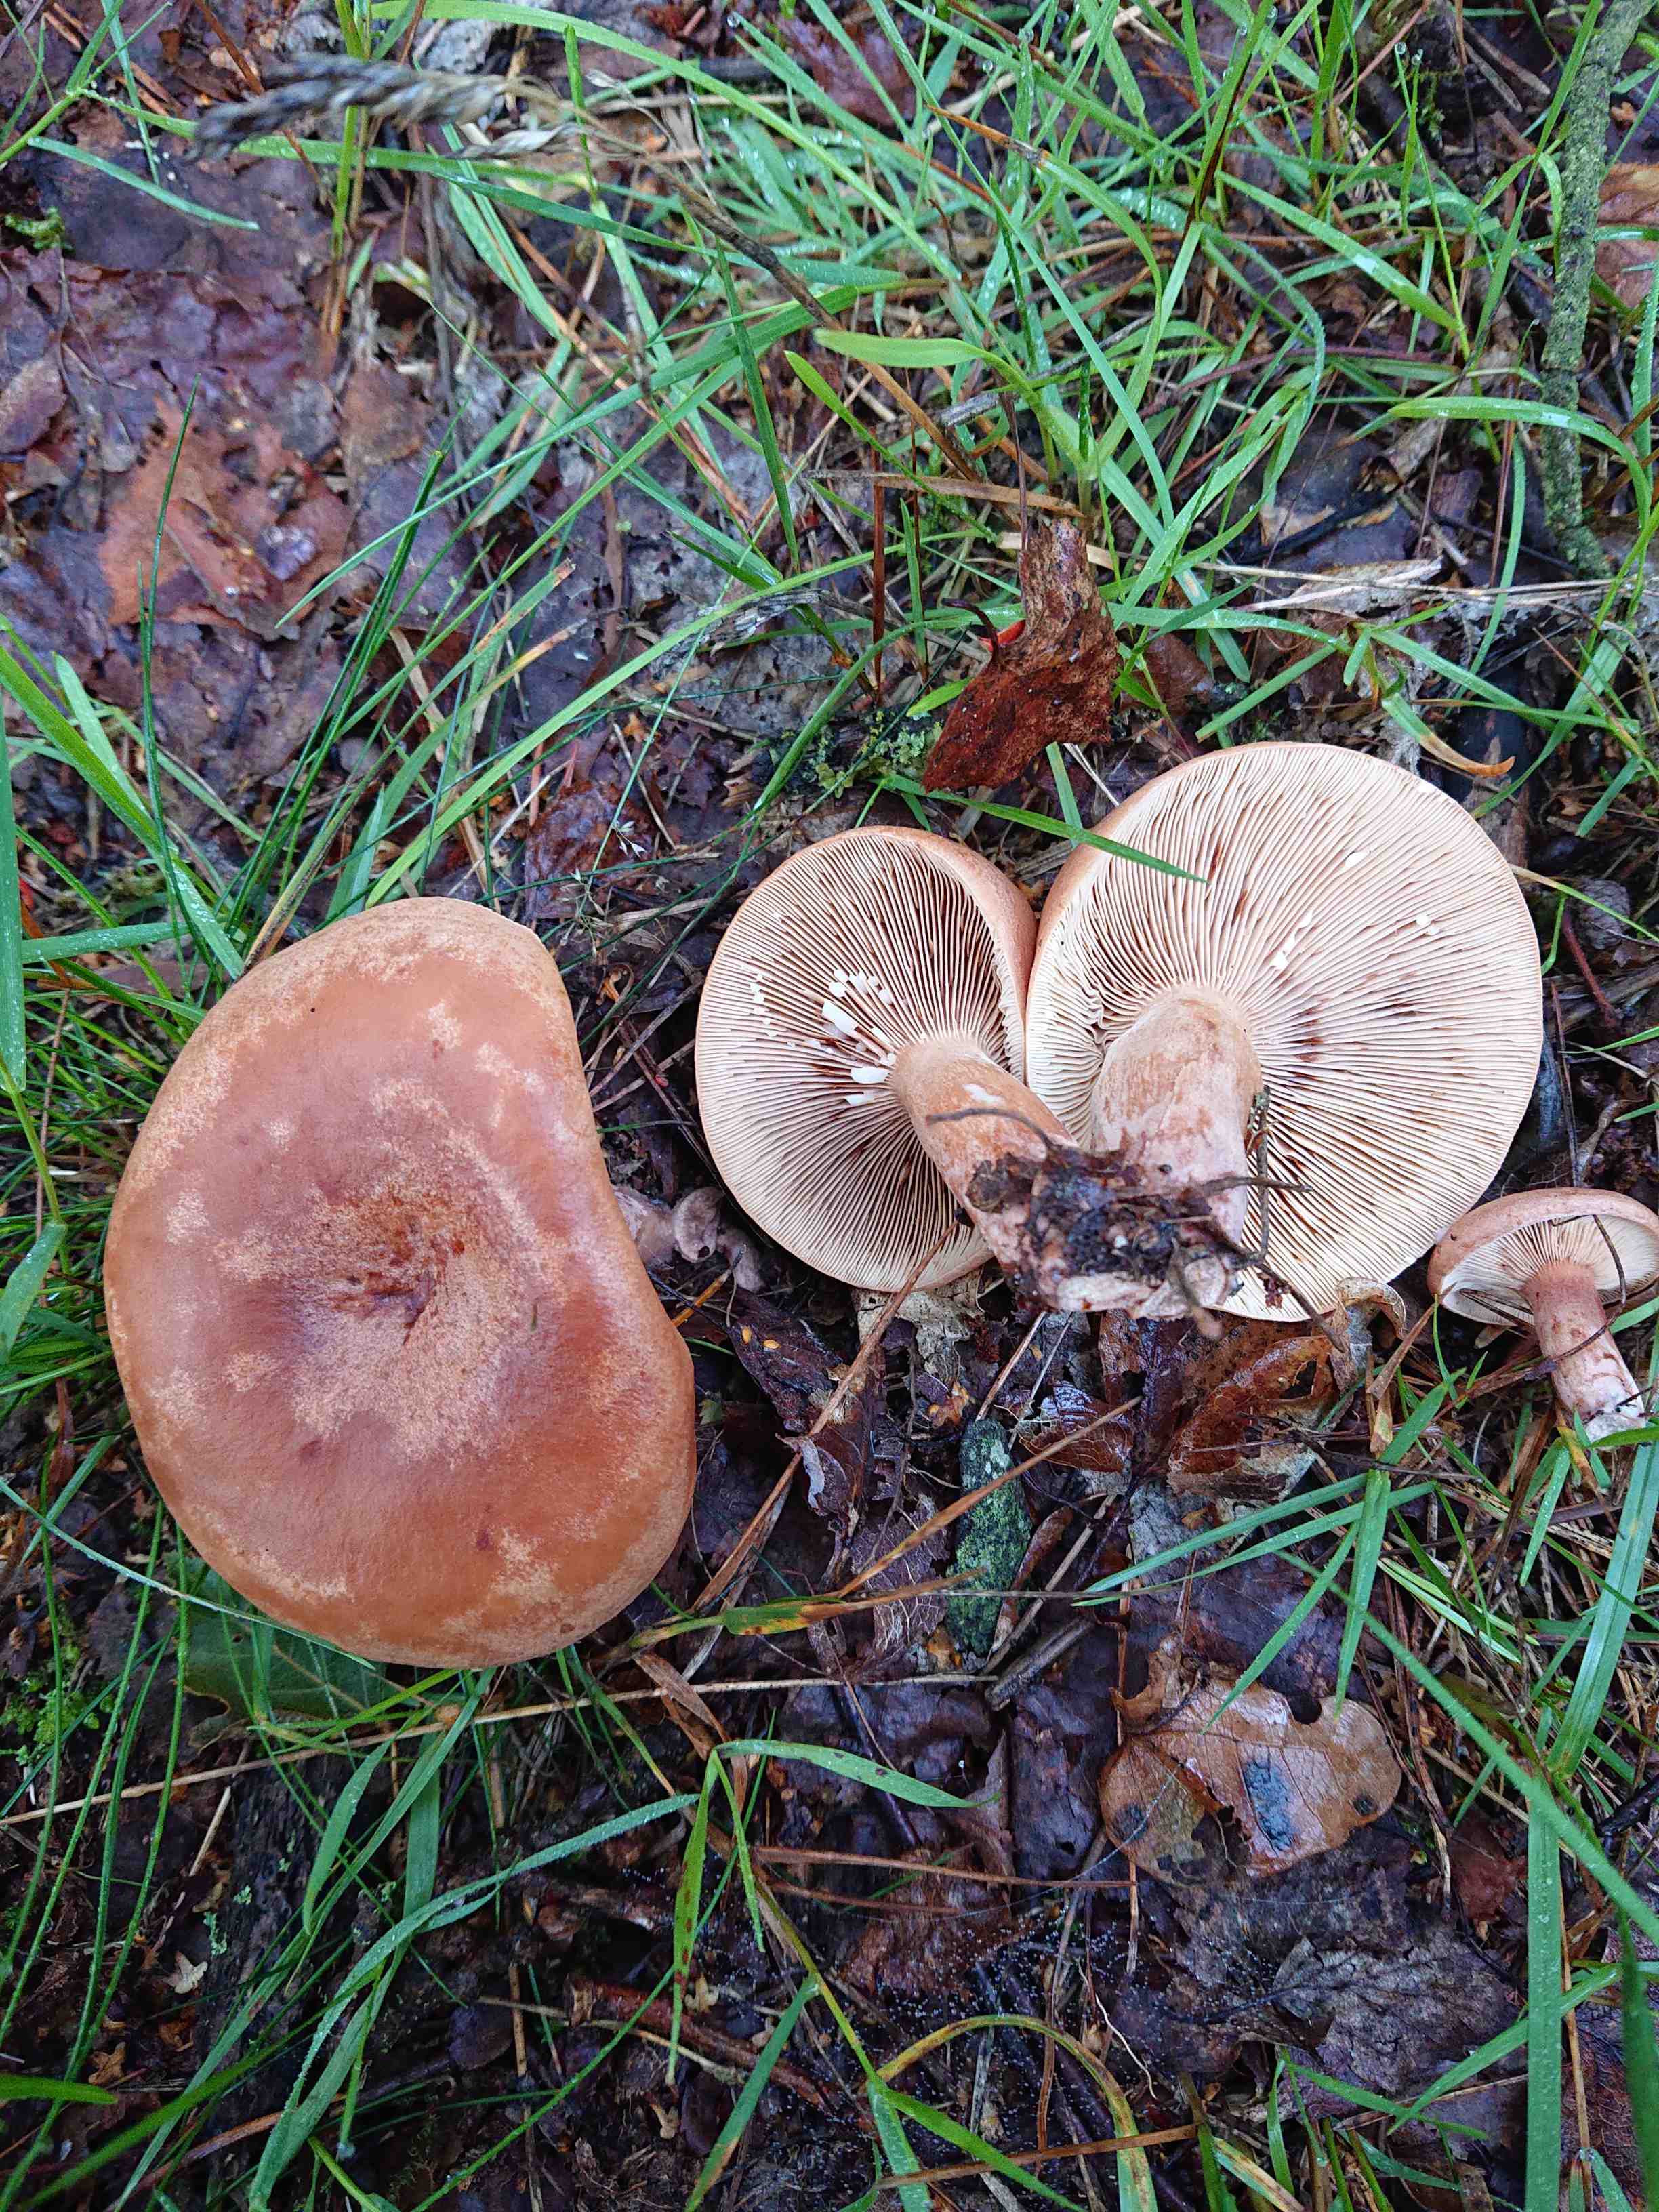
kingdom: Fungi
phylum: Basidiomycota
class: Agaricomycetes
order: Russulales
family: Russulaceae
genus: Lactarius
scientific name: Lactarius quietus
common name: ege-mælkehat
